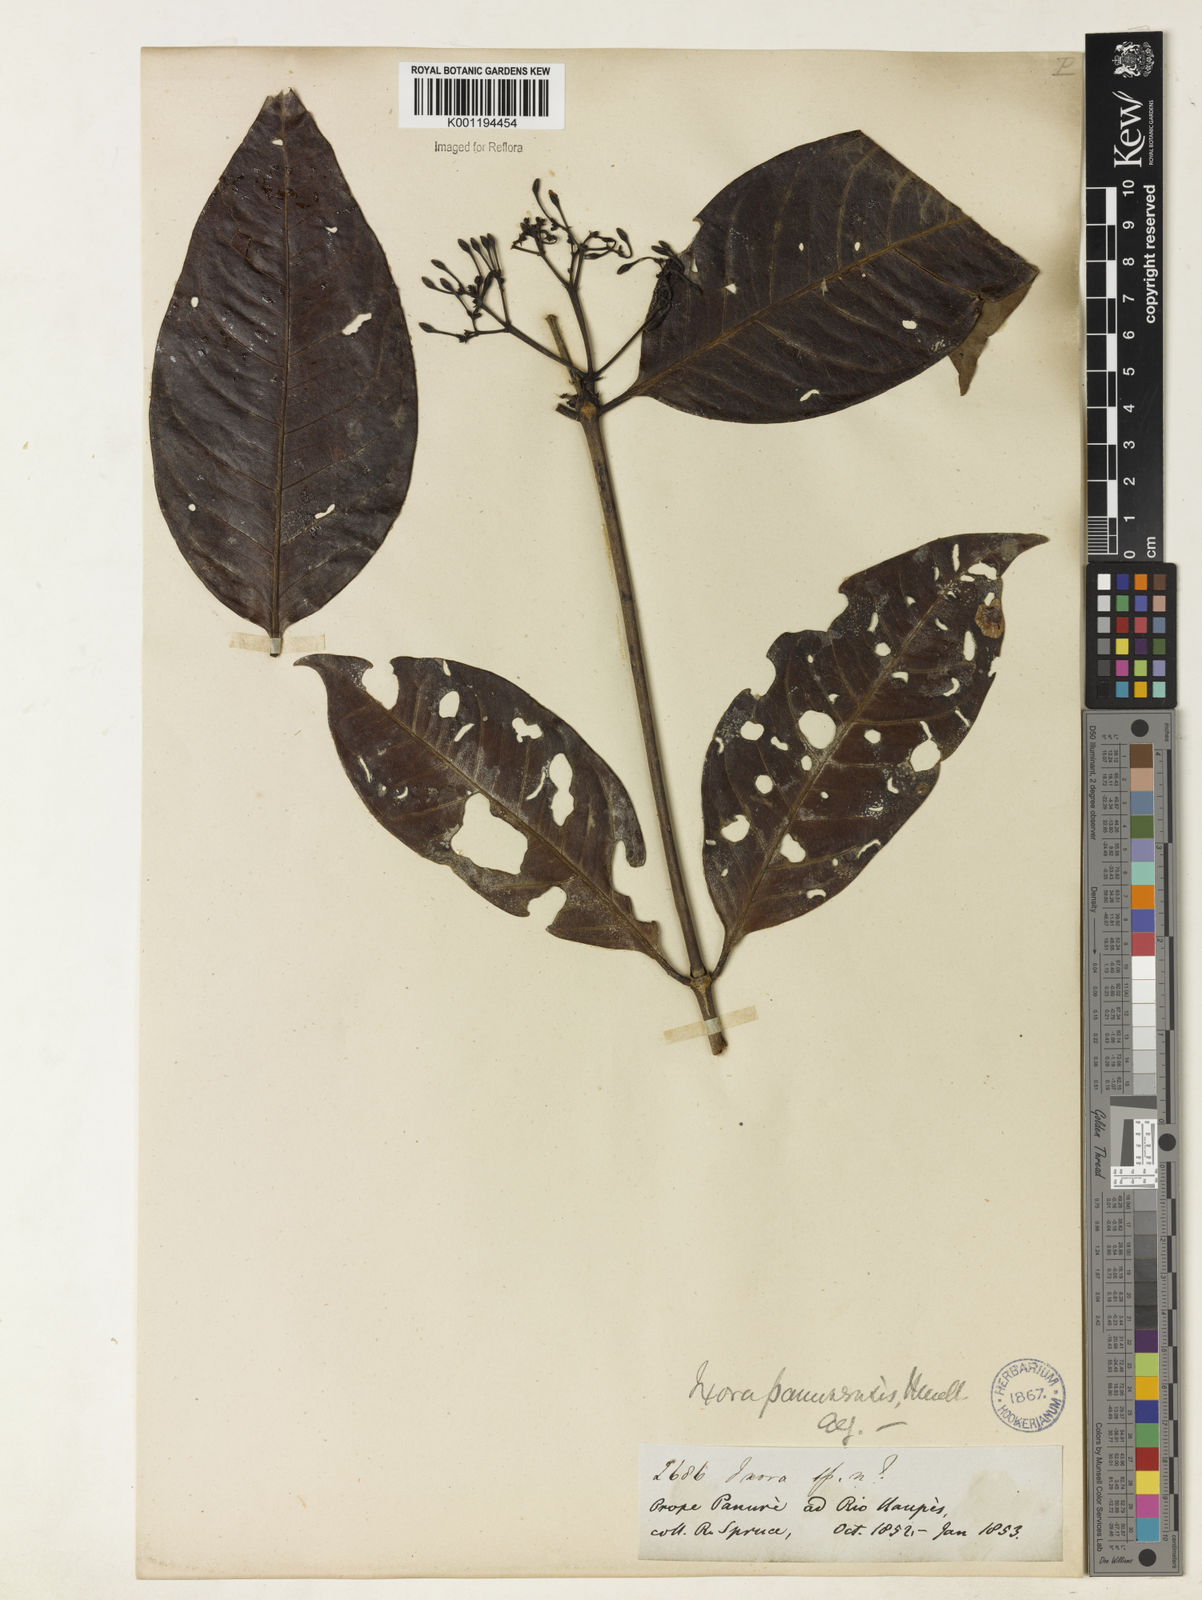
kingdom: Plantae
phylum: Tracheophyta
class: Magnoliopsida
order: Gentianales
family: Rubiaceae
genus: Ixora
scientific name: Ixora
